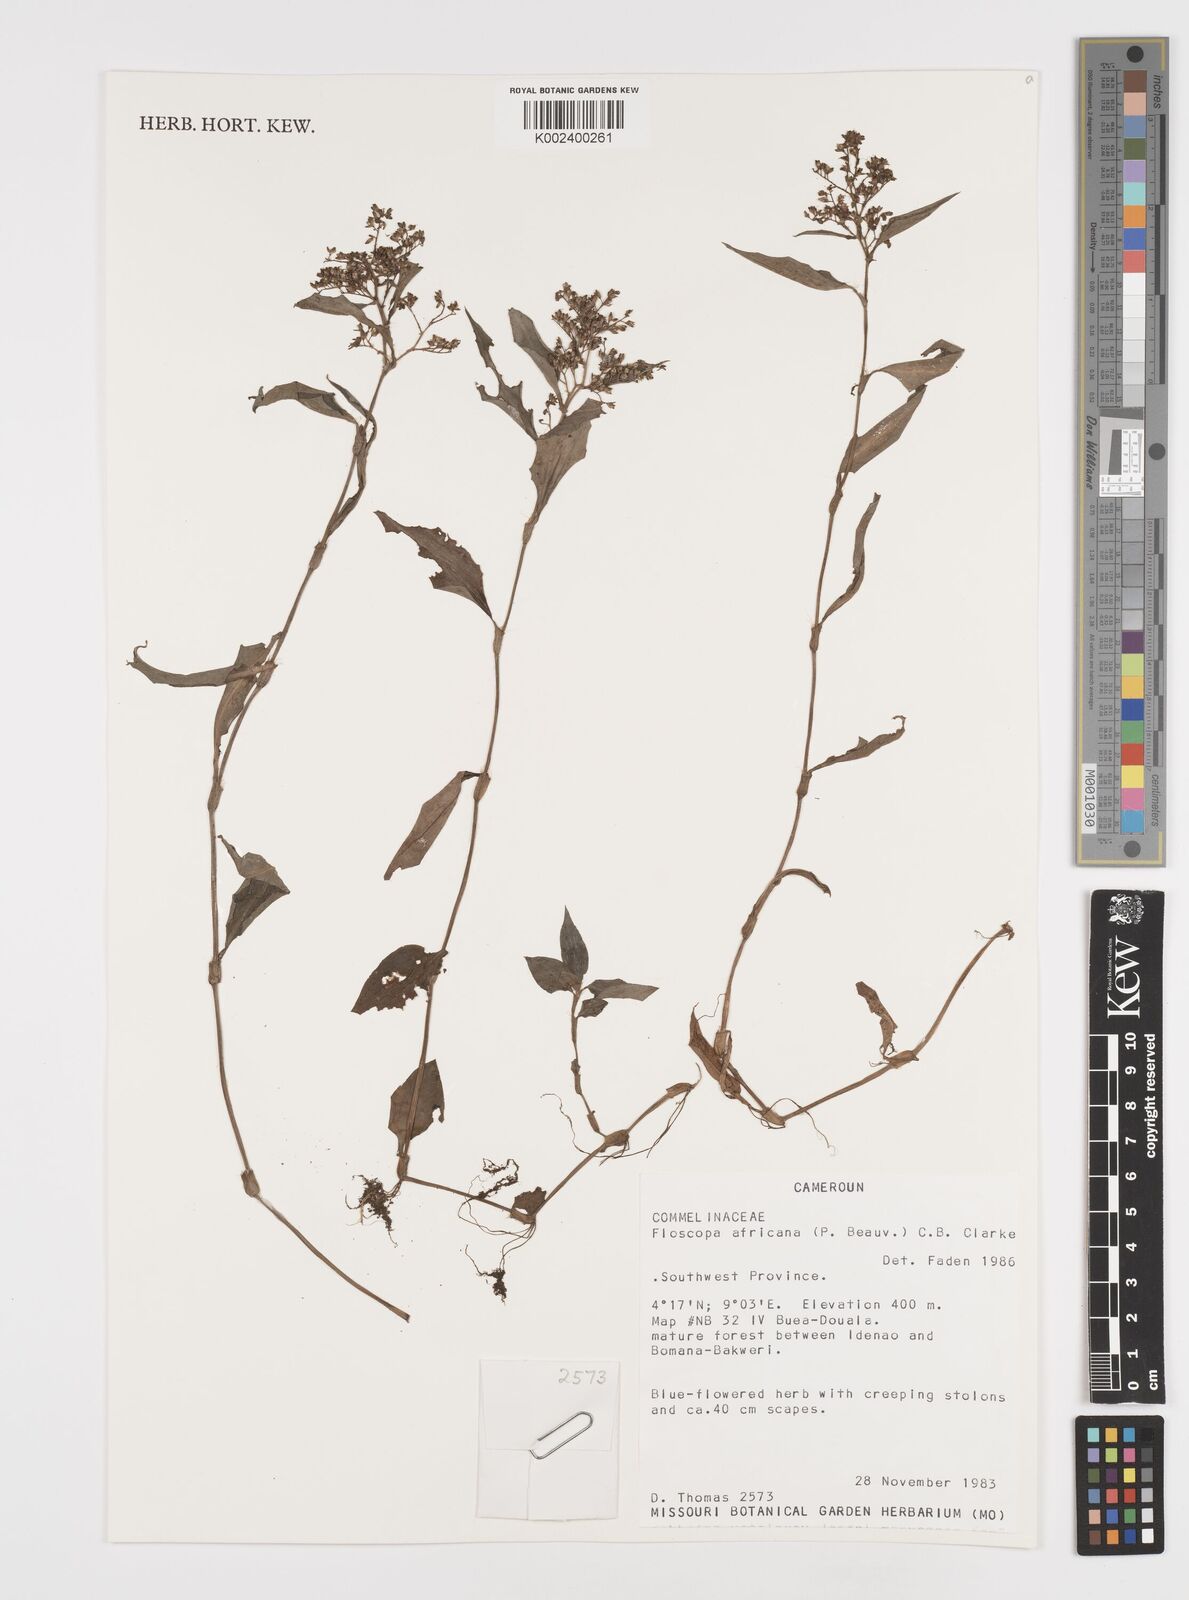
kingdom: Plantae
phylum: Tracheophyta
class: Liliopsida
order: Commelinales
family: Commelinaceae
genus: Floscopa
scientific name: Floscopa africana
